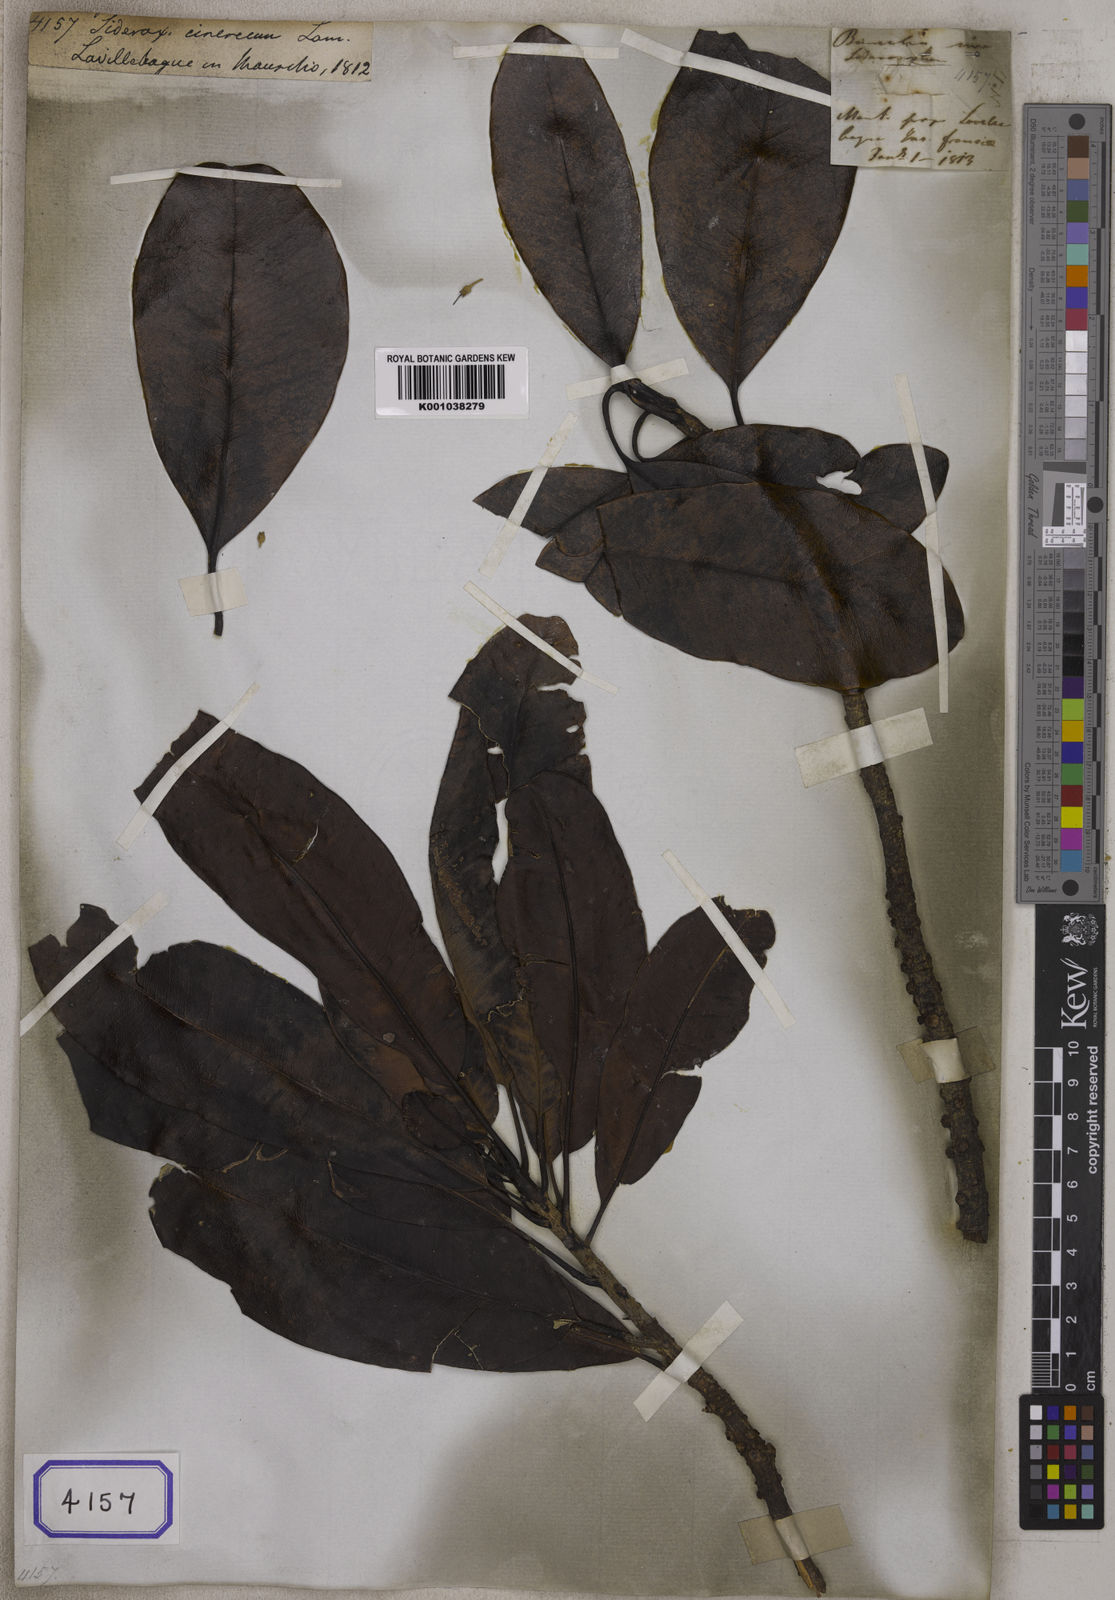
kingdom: Plantae
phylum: Tracheophyta
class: Magnoliopsida
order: Ericales
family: Sapotaceae
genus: Sideroxylon
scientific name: Sideroxylon cinereum
